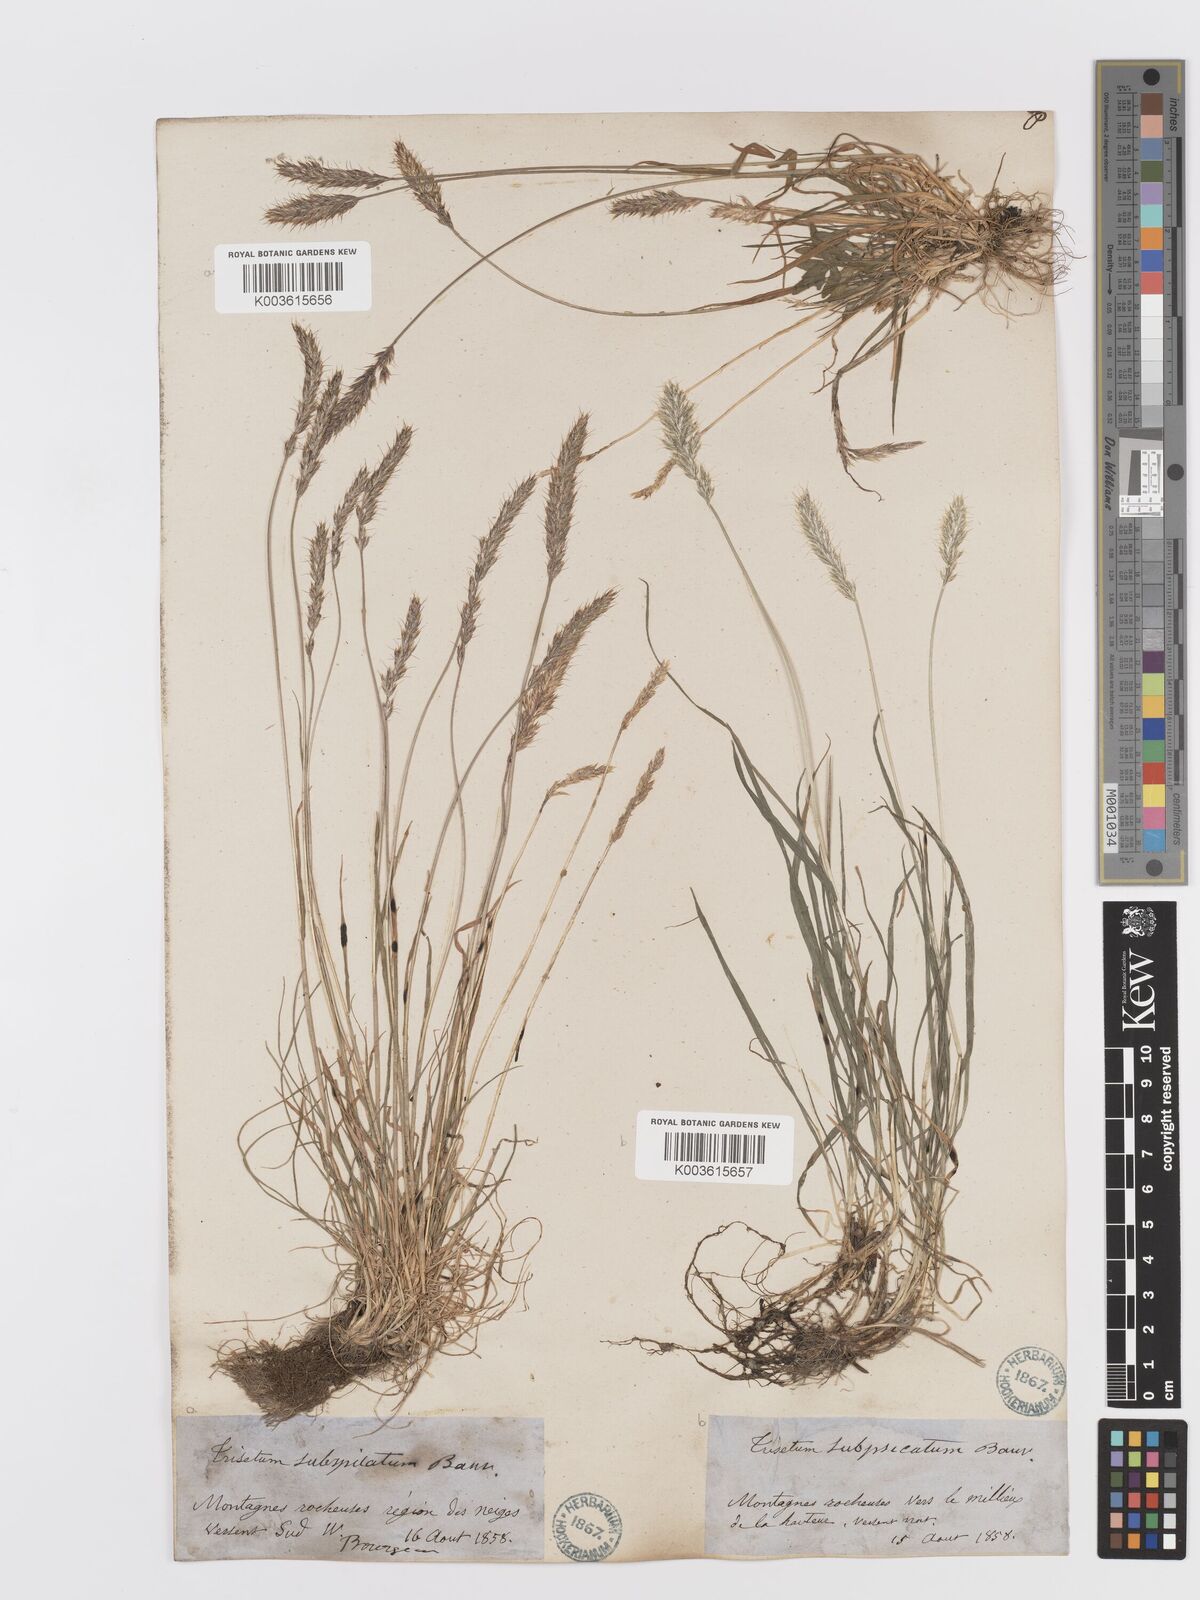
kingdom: Plantae
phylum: Tracheophyta
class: Liliopsida
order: Poales
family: Poaceae
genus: Koeleria
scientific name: Koeleria spicata
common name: Mountain trisetum
